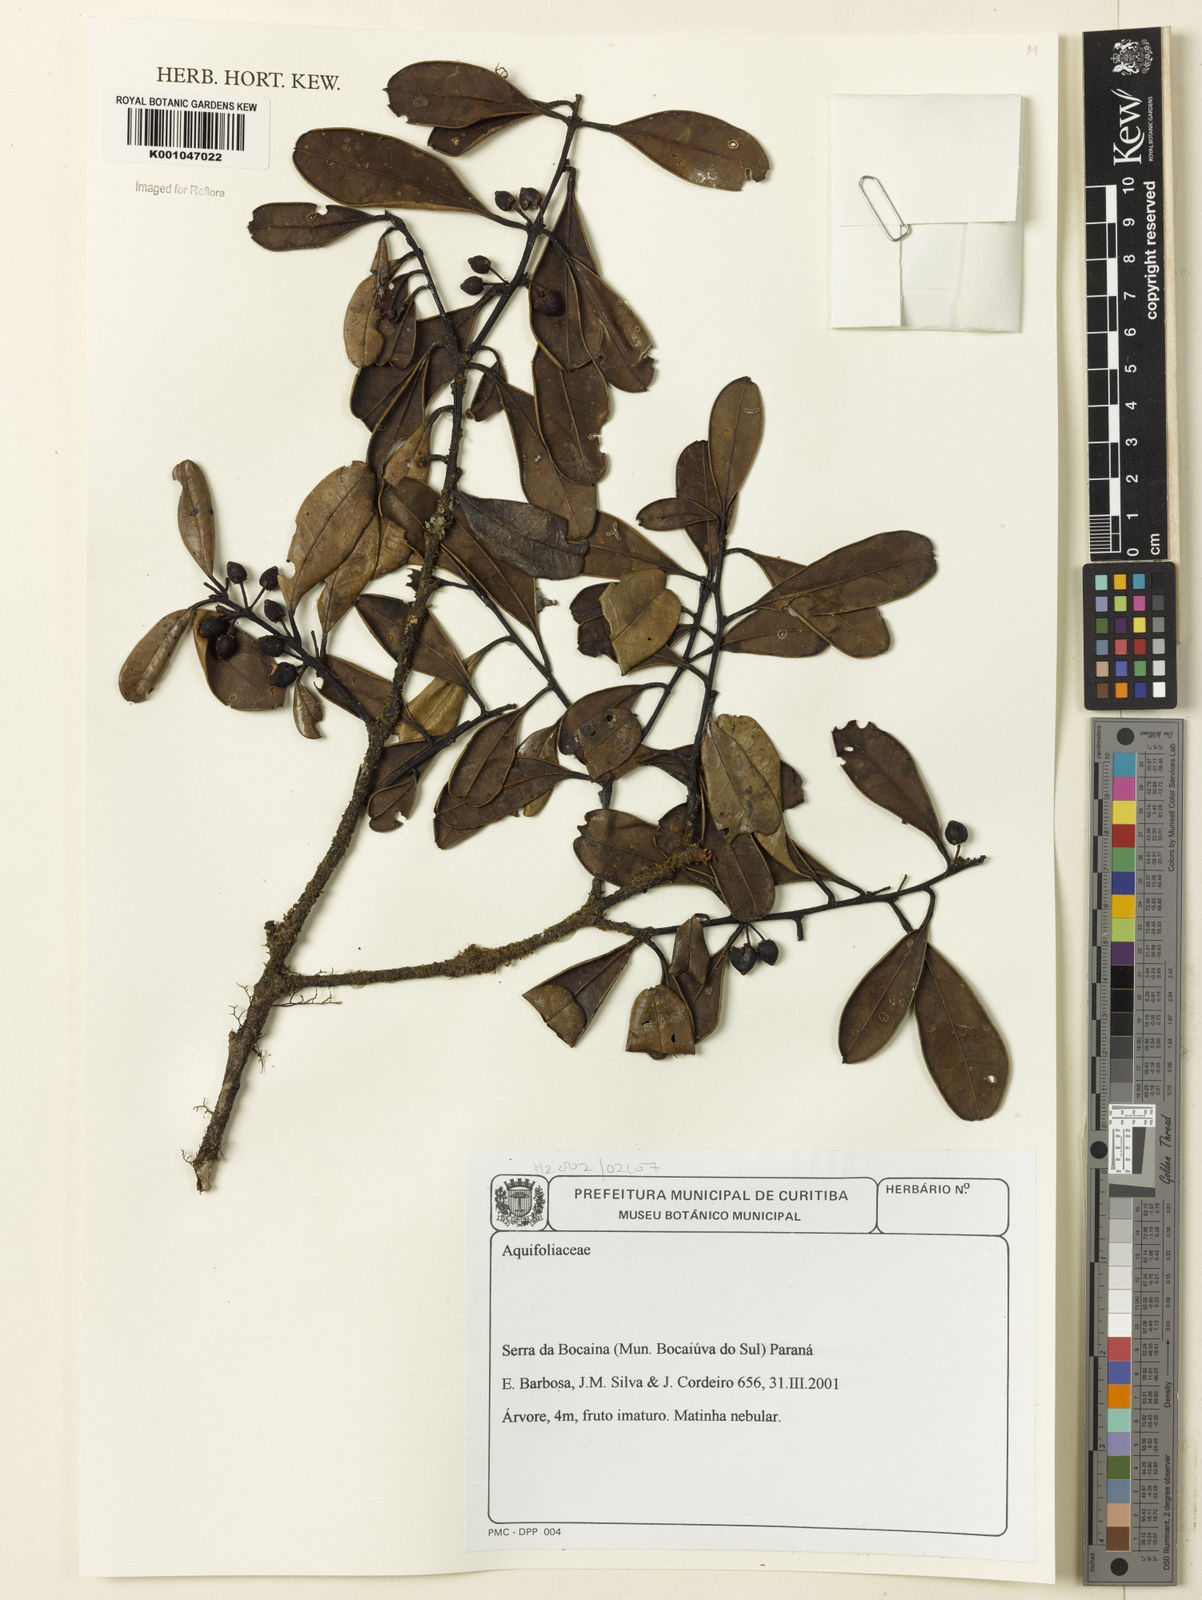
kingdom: Plantae
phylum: Tracheophyta
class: Magnoliopsida
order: Aquifoliales
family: Aquifoliaceae
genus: Ilex
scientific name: Ilex
